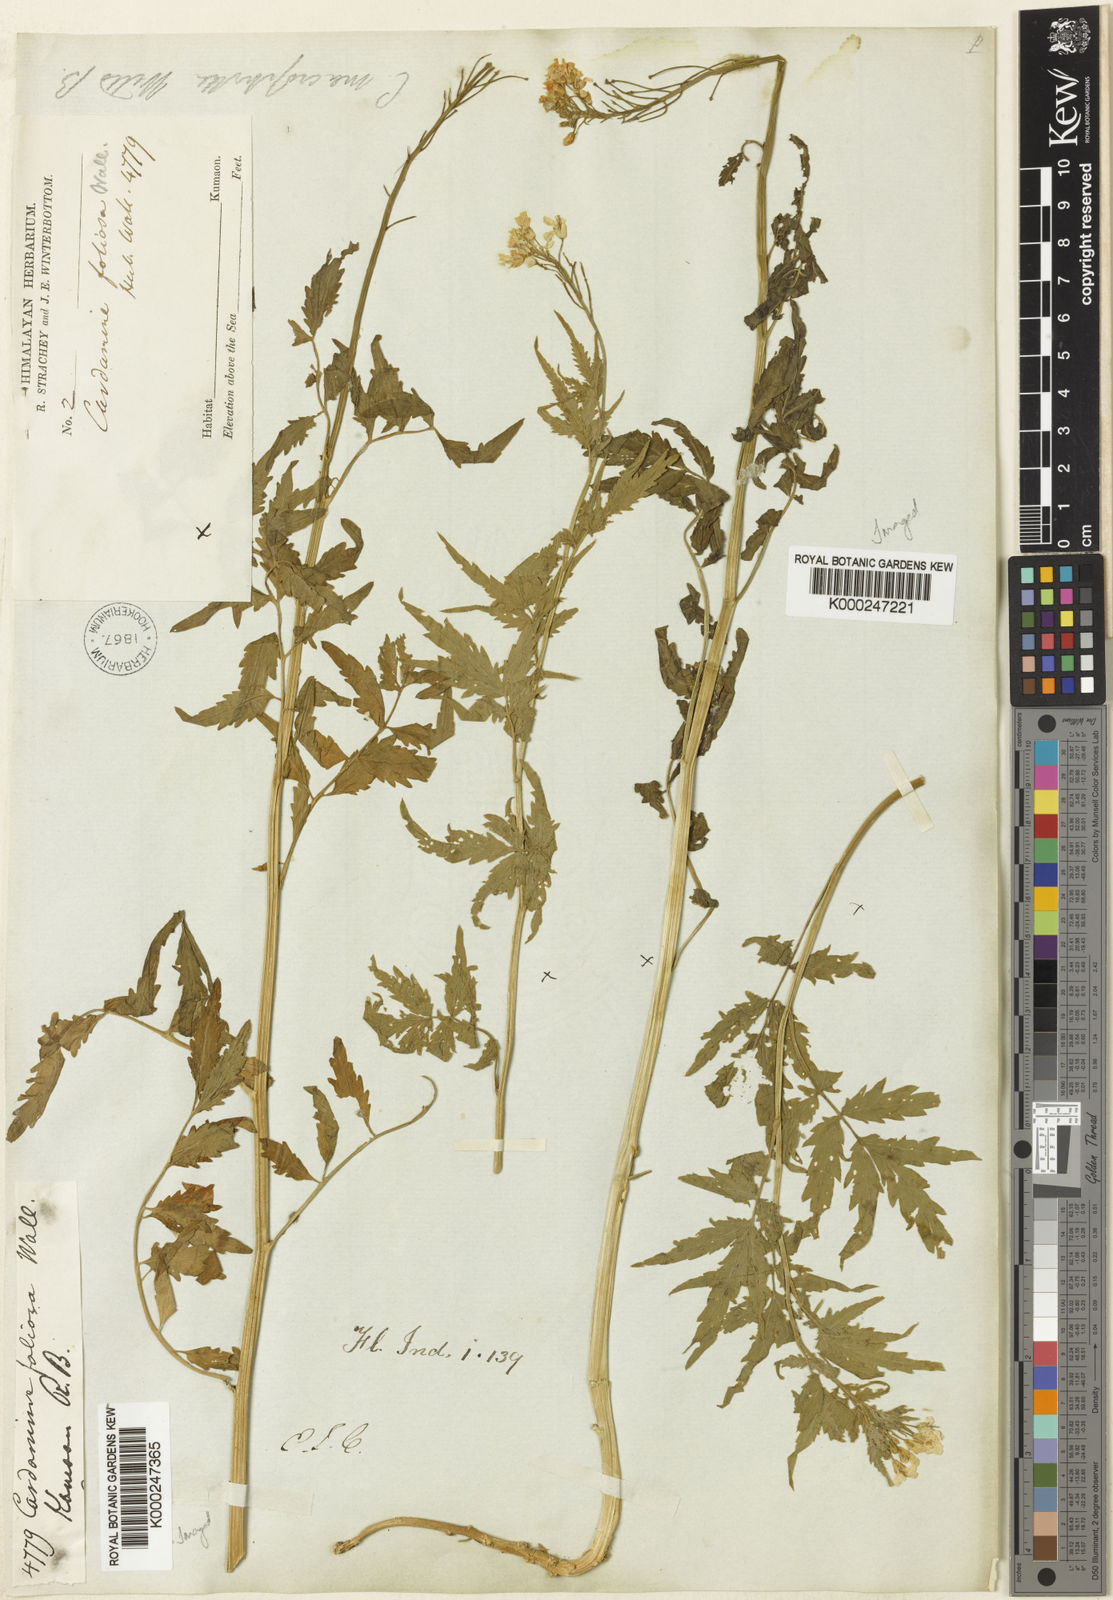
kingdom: Plantae
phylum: Tracheophyta
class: Magnoliopsida
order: Brassicales
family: Brassicaceae
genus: Cardamine
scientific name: Cardamine macrophylla
